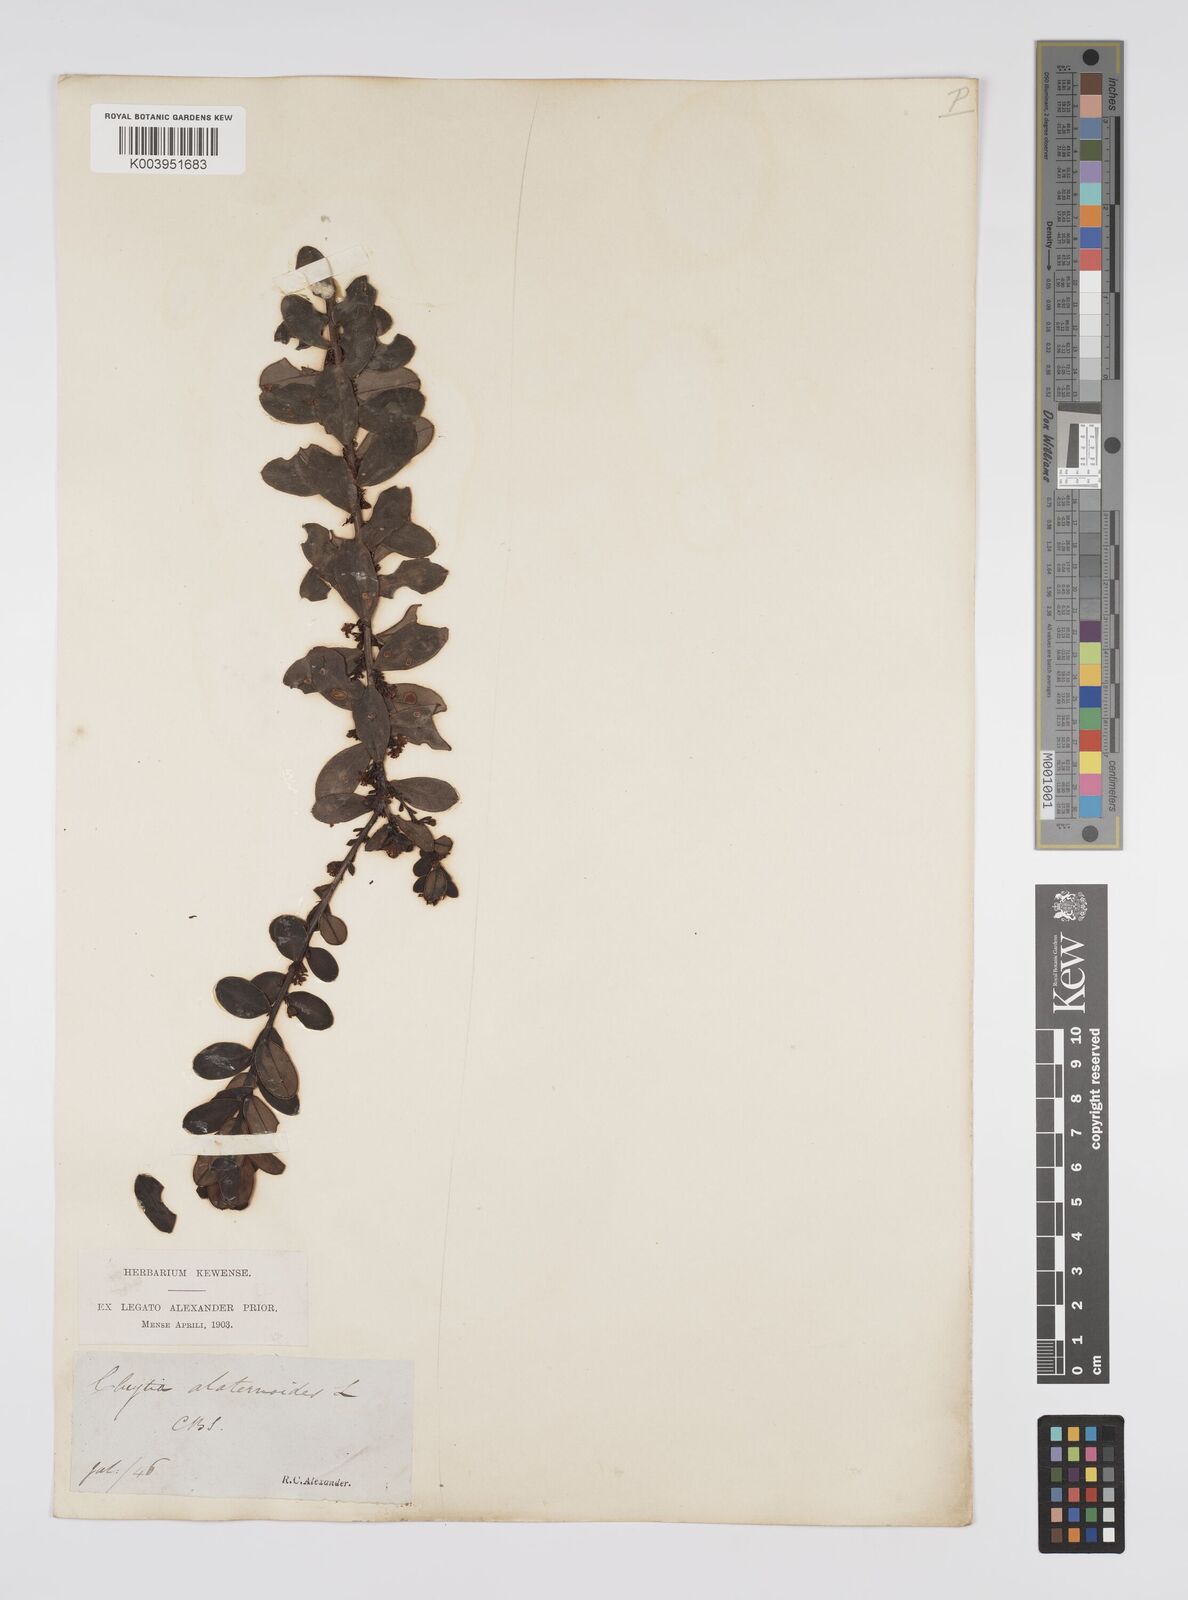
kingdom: Plantae
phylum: Tracheophyta
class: Magnoliopsida
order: Malpighiales
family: Peraceae
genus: Clutia
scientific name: Clutia africana
